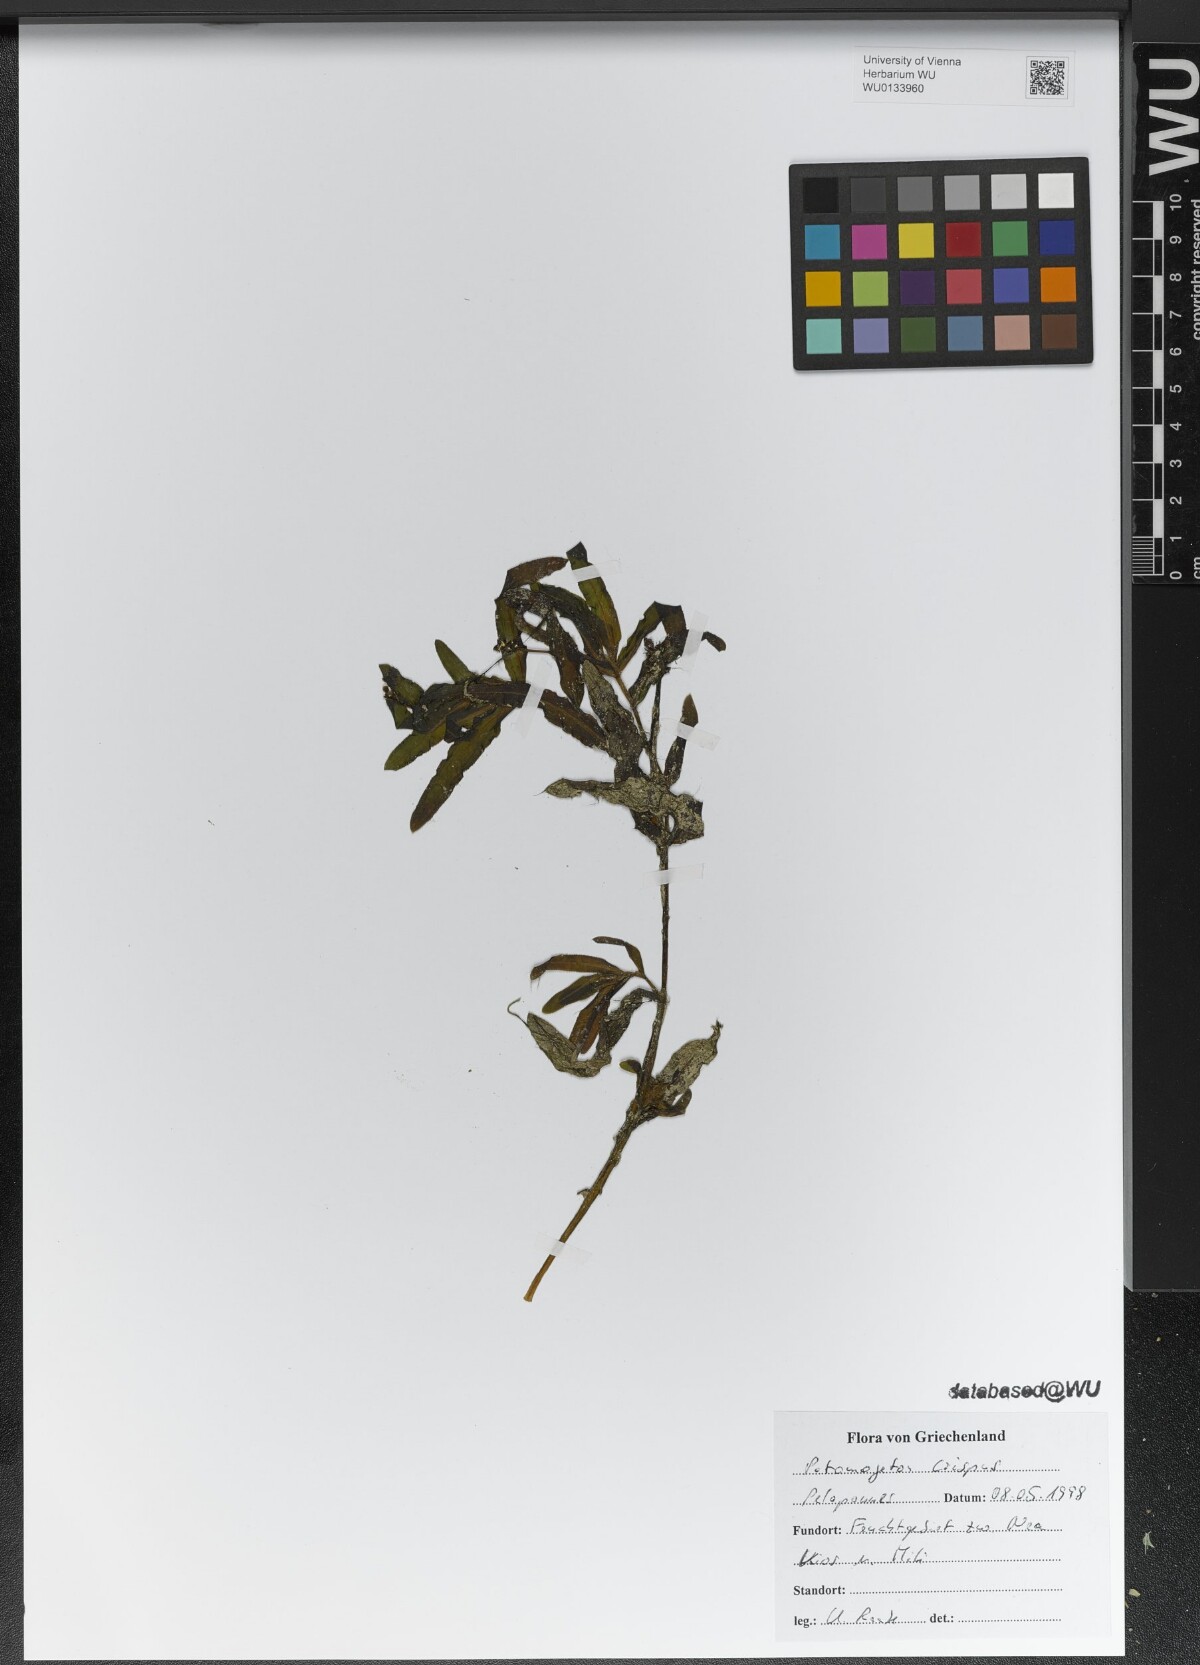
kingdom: Plantae
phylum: Tracheophyta
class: Liliopsida
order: Alismatales
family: Potamogetonaceae
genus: Potamogeton
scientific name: Potamogeton crispus
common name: Curled pondweed
